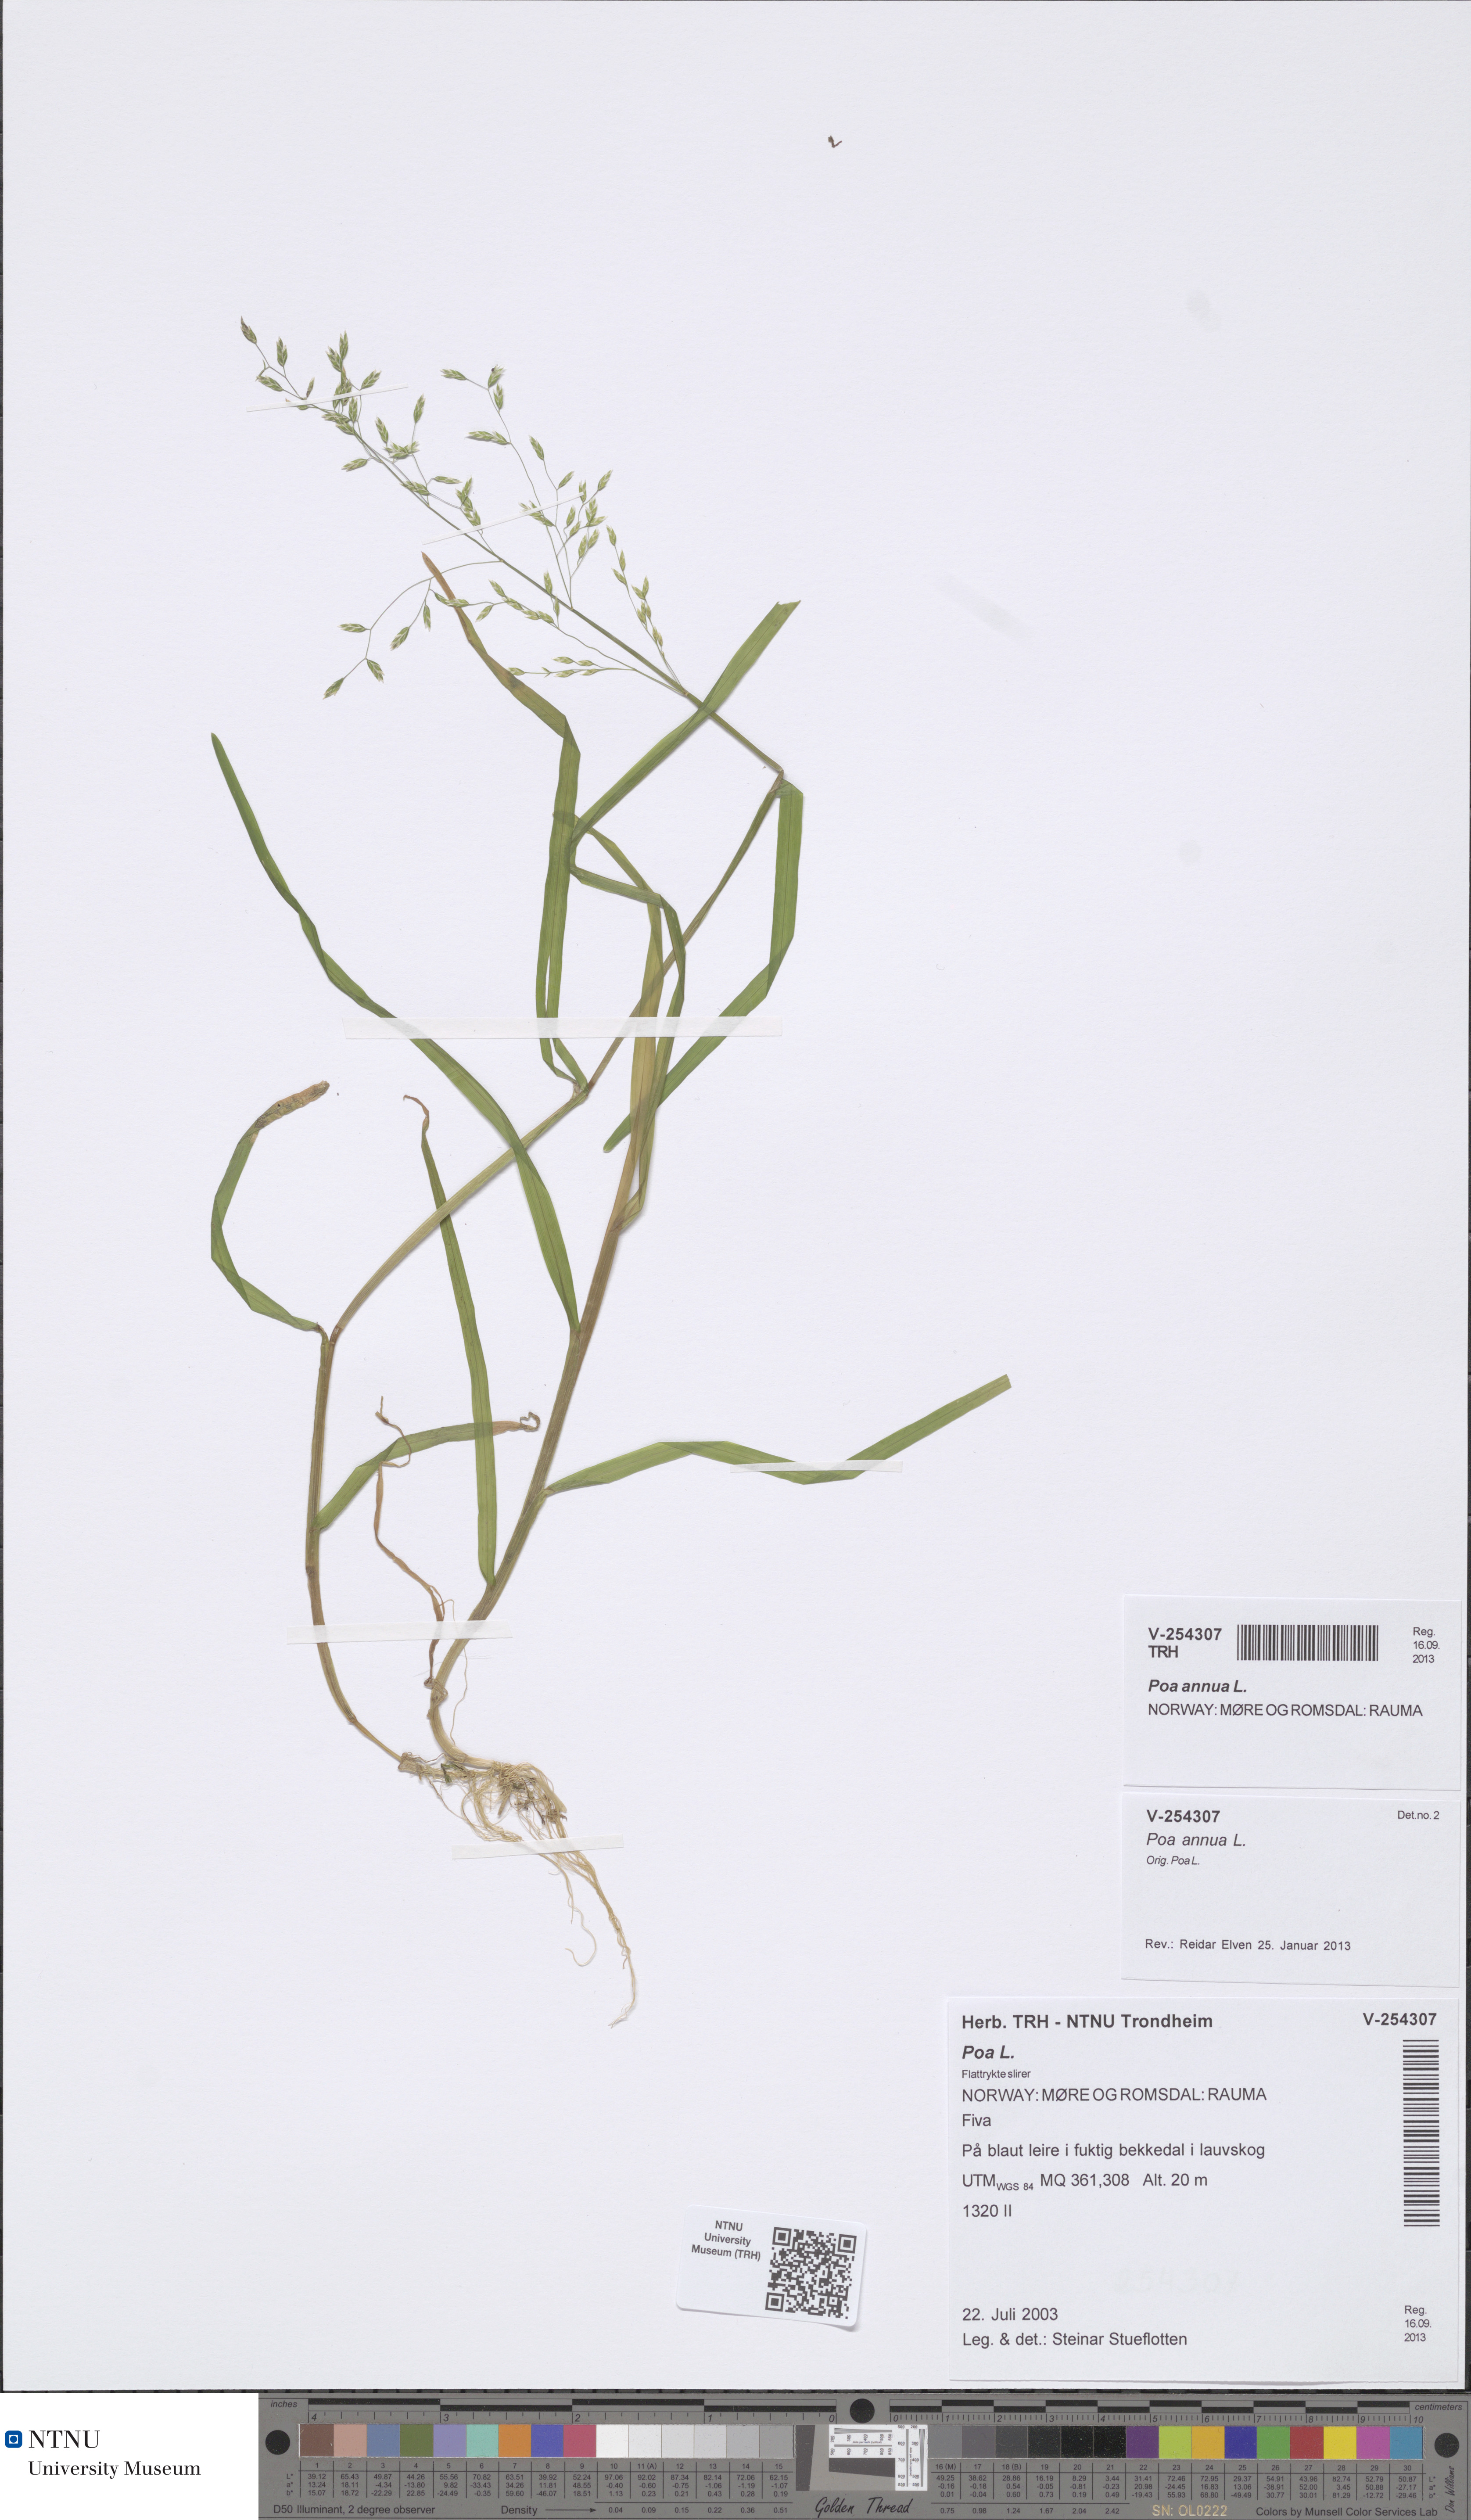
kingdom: Plantae
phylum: Tracheophyta
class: Liliopsida
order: Poales
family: Poaceae
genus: Poa
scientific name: Poa annua
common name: Annual bluegrass
